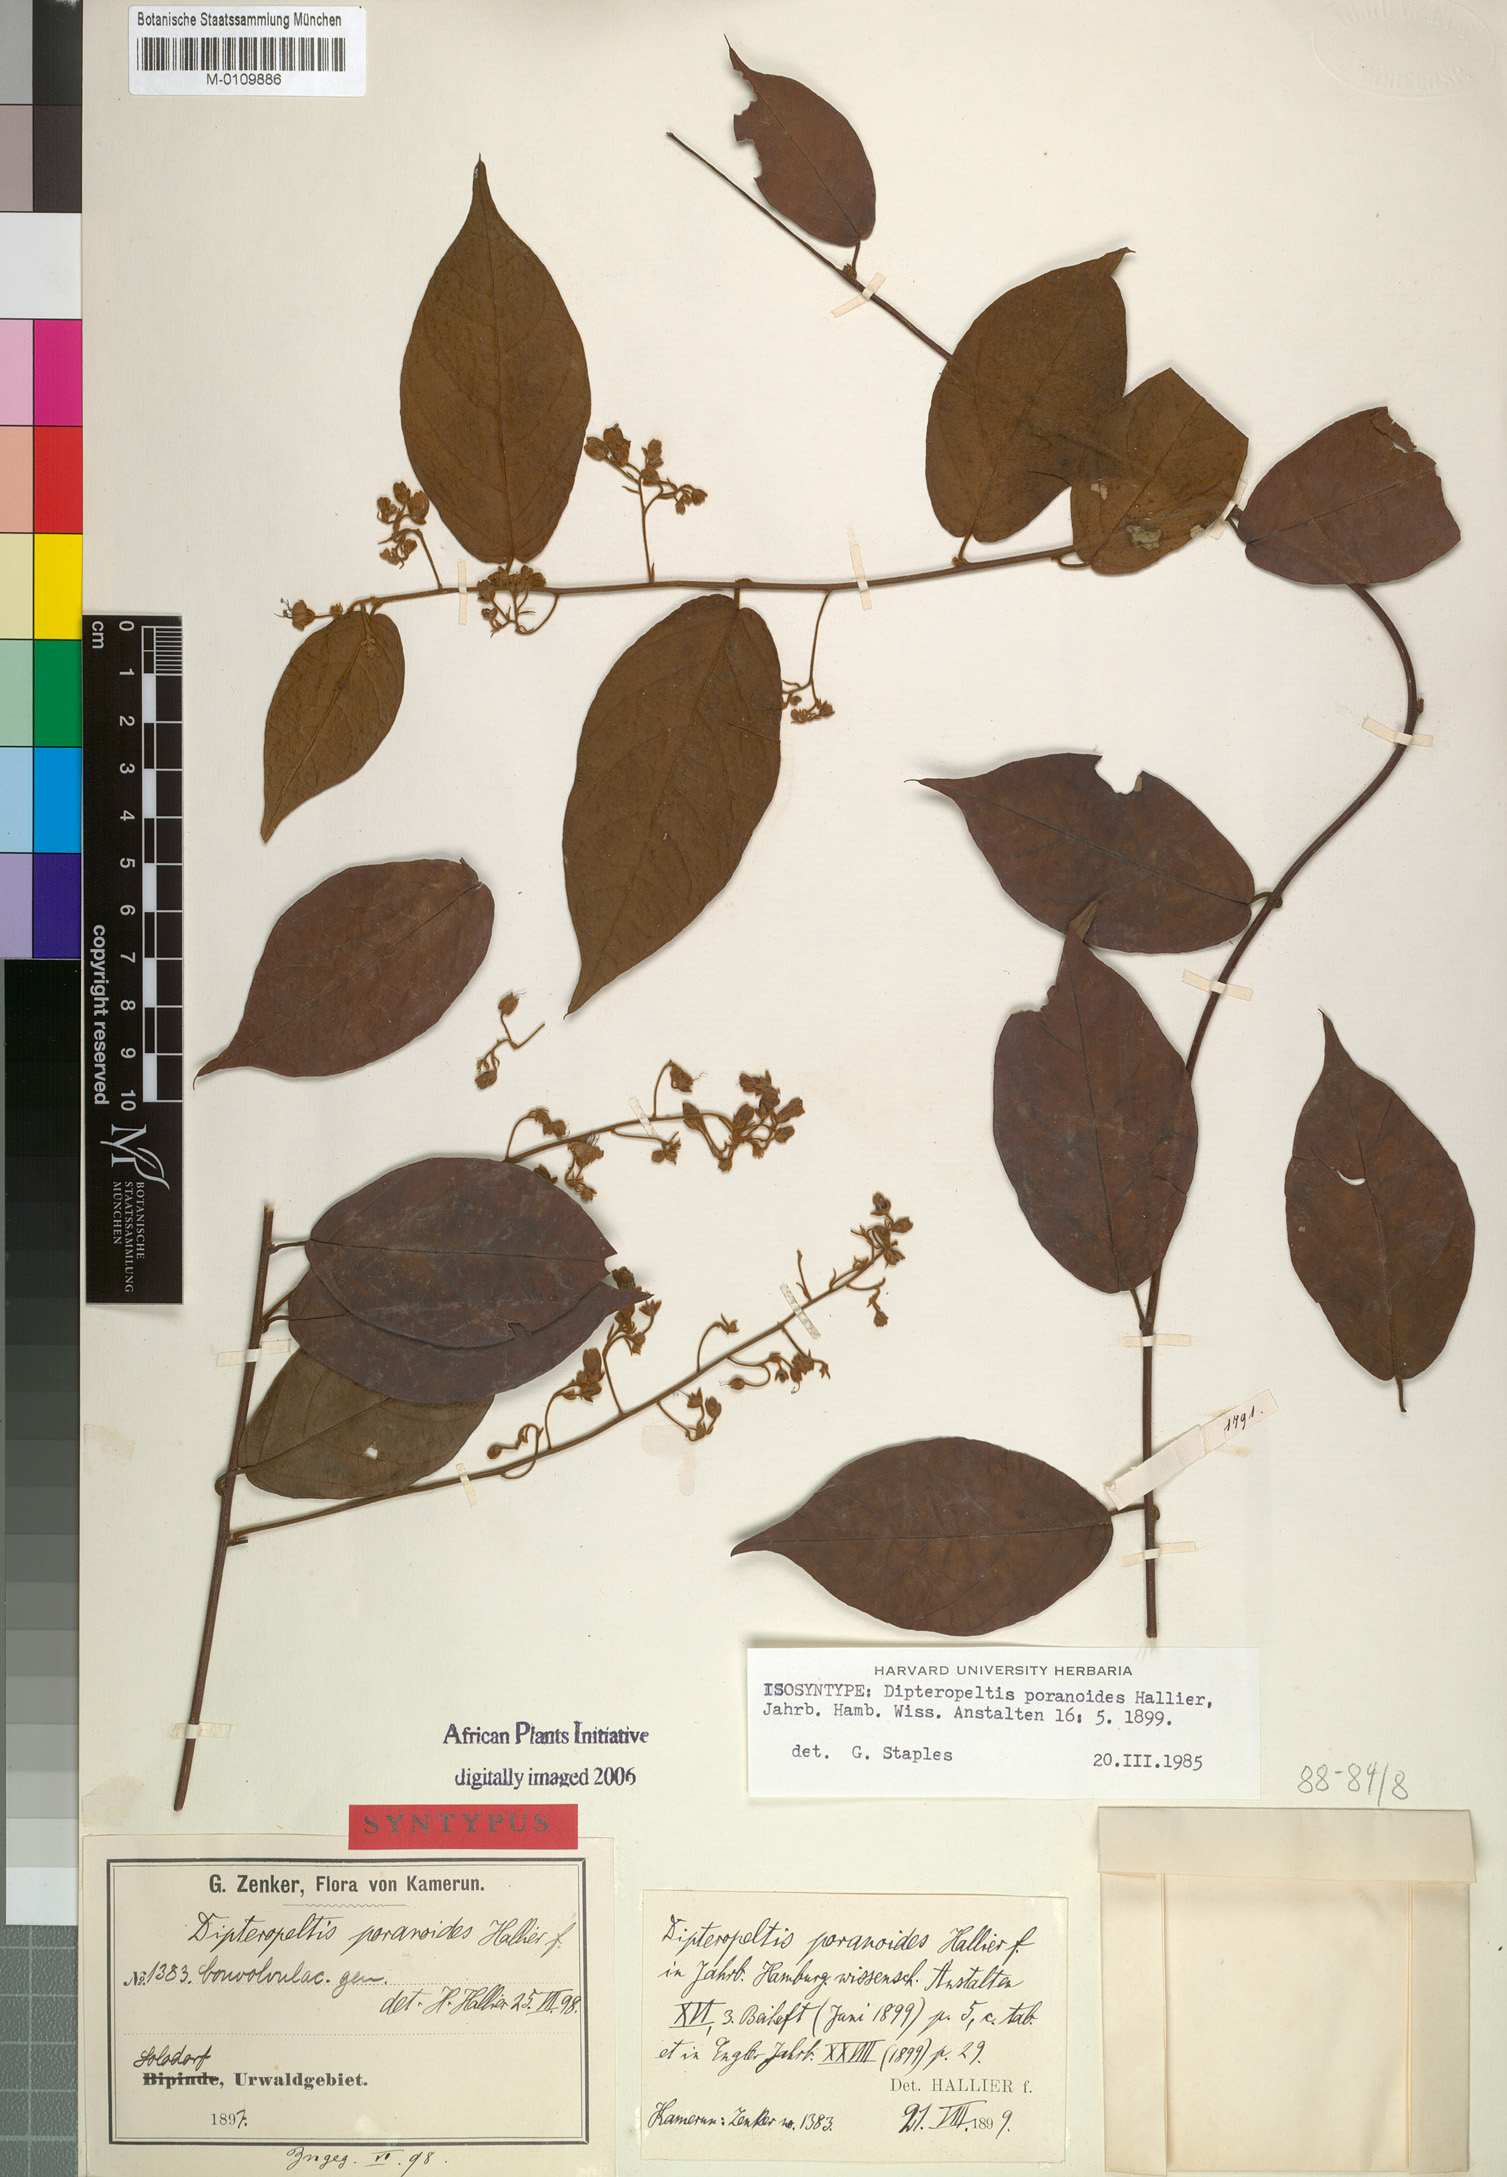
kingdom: Plantae
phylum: Tracheophyta
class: Magnoliopsida
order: Solanales
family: Convolvulaceae
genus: Dipteropeltis
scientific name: Dipteropeltis poranoides
